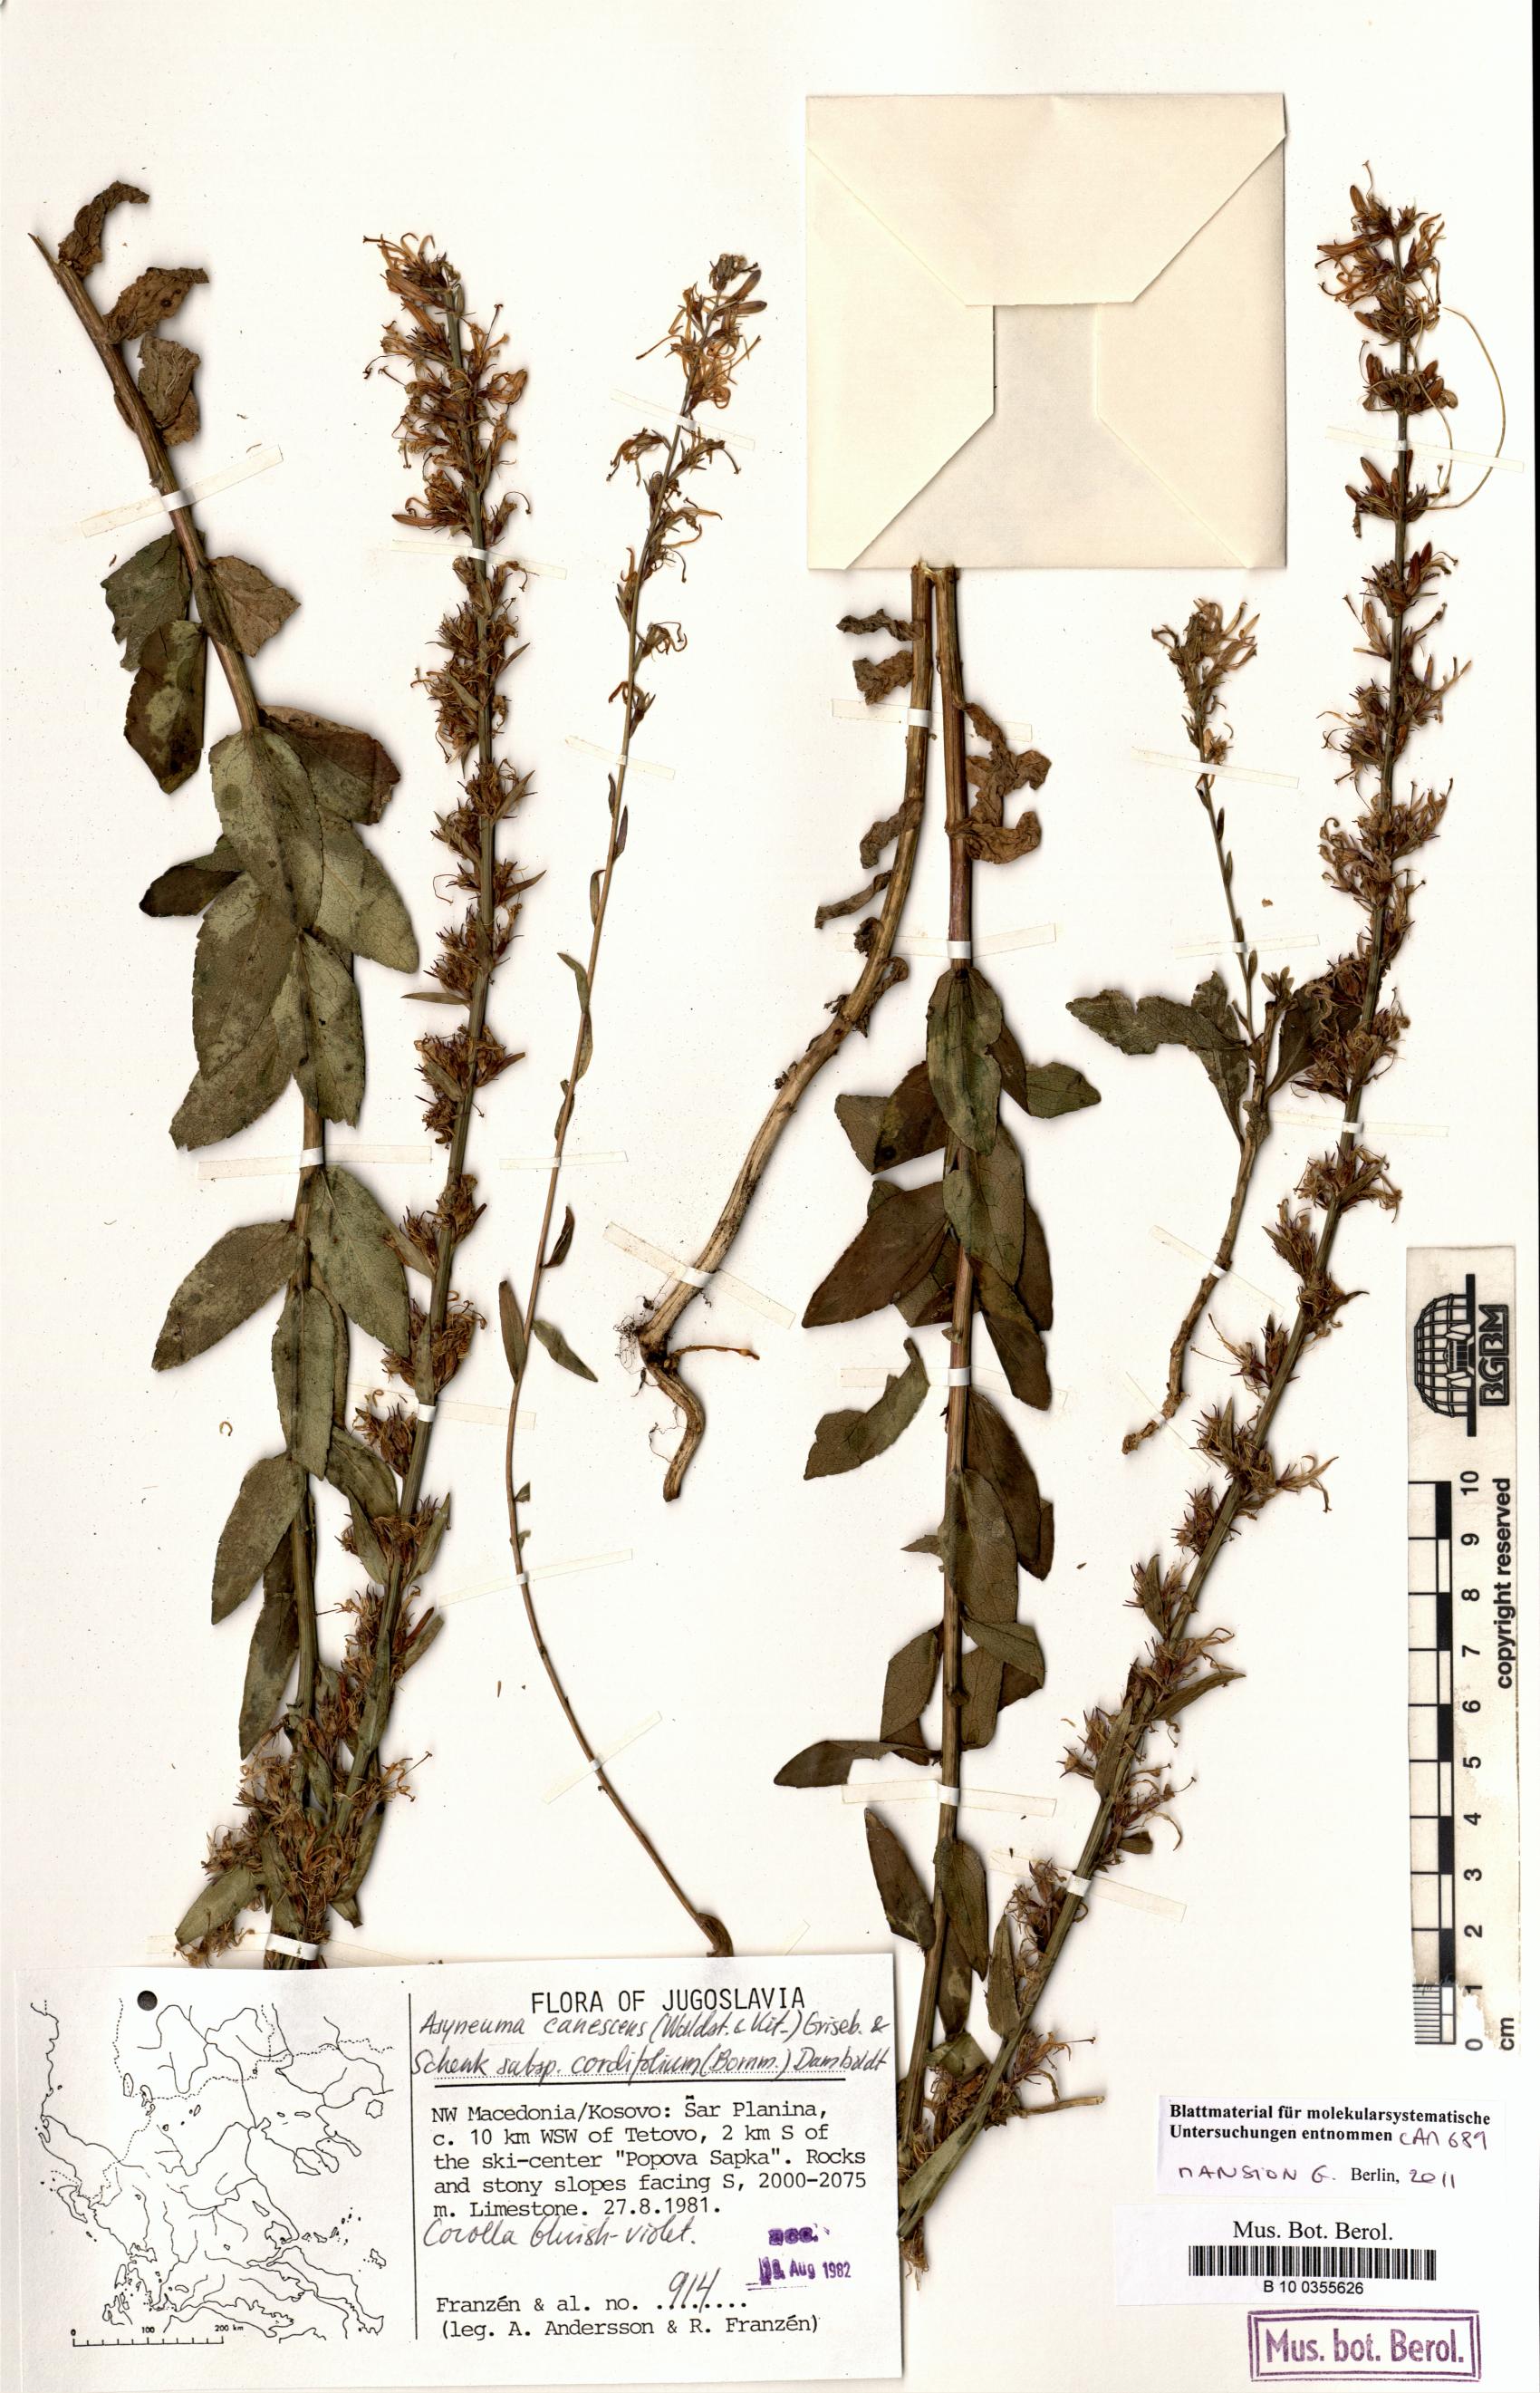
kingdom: Plantae
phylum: Tracheophyta
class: Magnoliopsida
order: Asterales
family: Campanulaceae
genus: Asyneuma
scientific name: Asyneuma canescens
